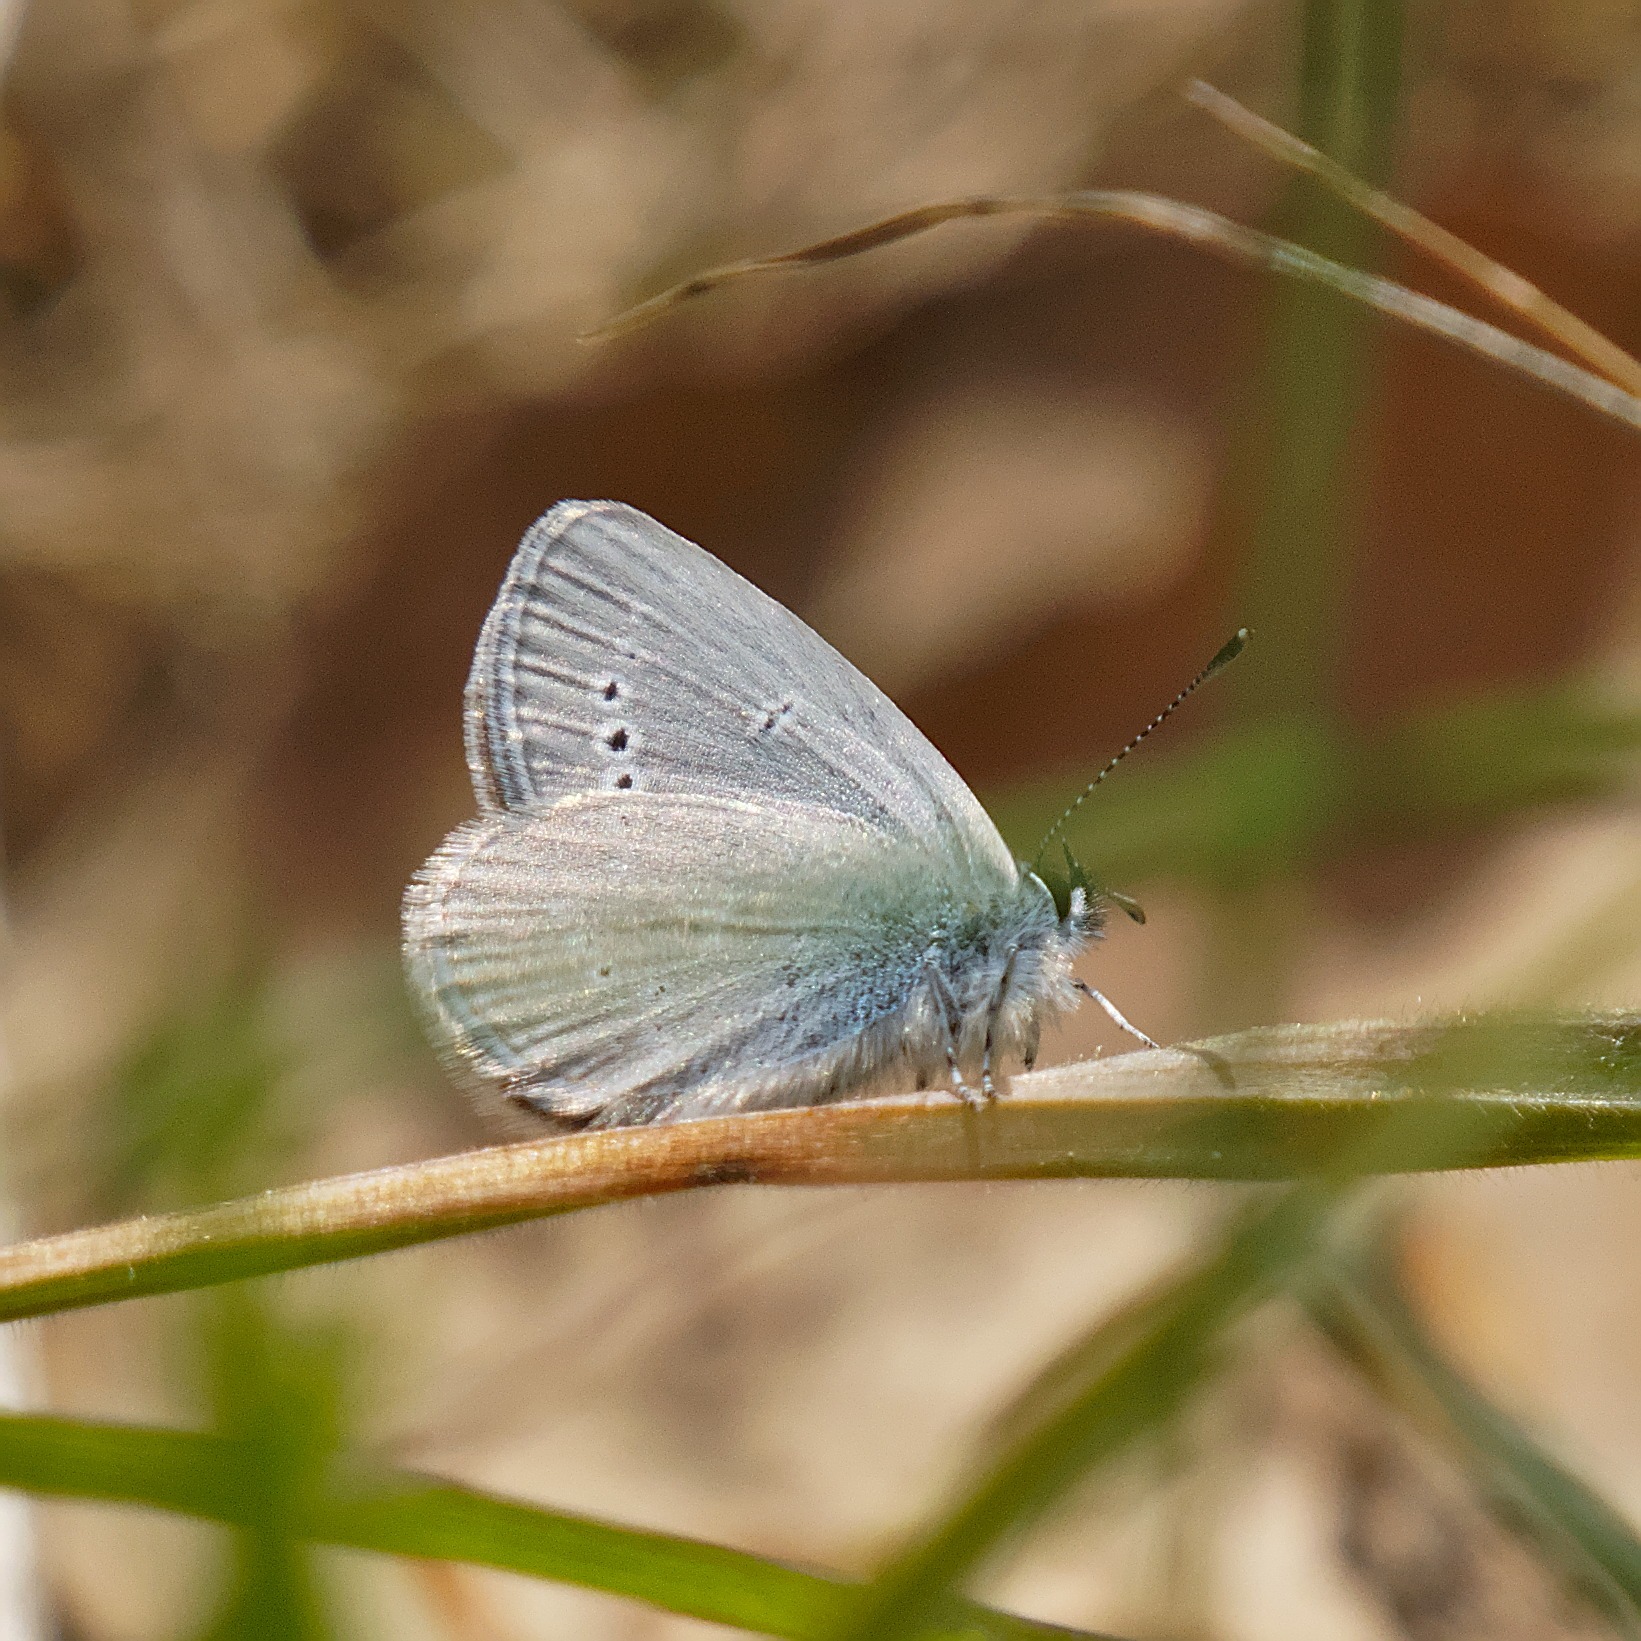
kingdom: Animalia
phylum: Arthropoda
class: Insecta
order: Lepidoptera
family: Lycaenidae
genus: Cupido
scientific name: Cupido minimus
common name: Dværgblåfugl
